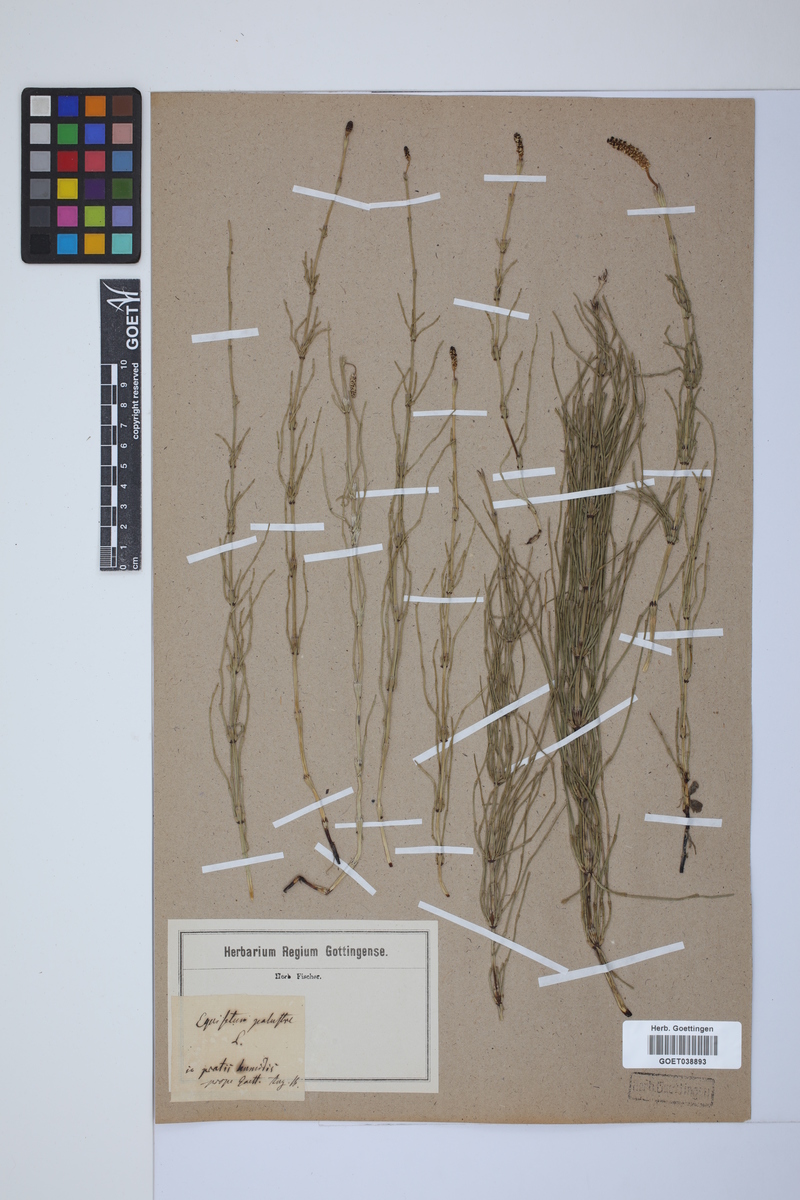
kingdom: Plantae
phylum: Tracheophyta
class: Polypodiopsida
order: Equisetales
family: Equisetaceae
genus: Equisetum
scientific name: Equisetum palustre
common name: Marsh horsetail
